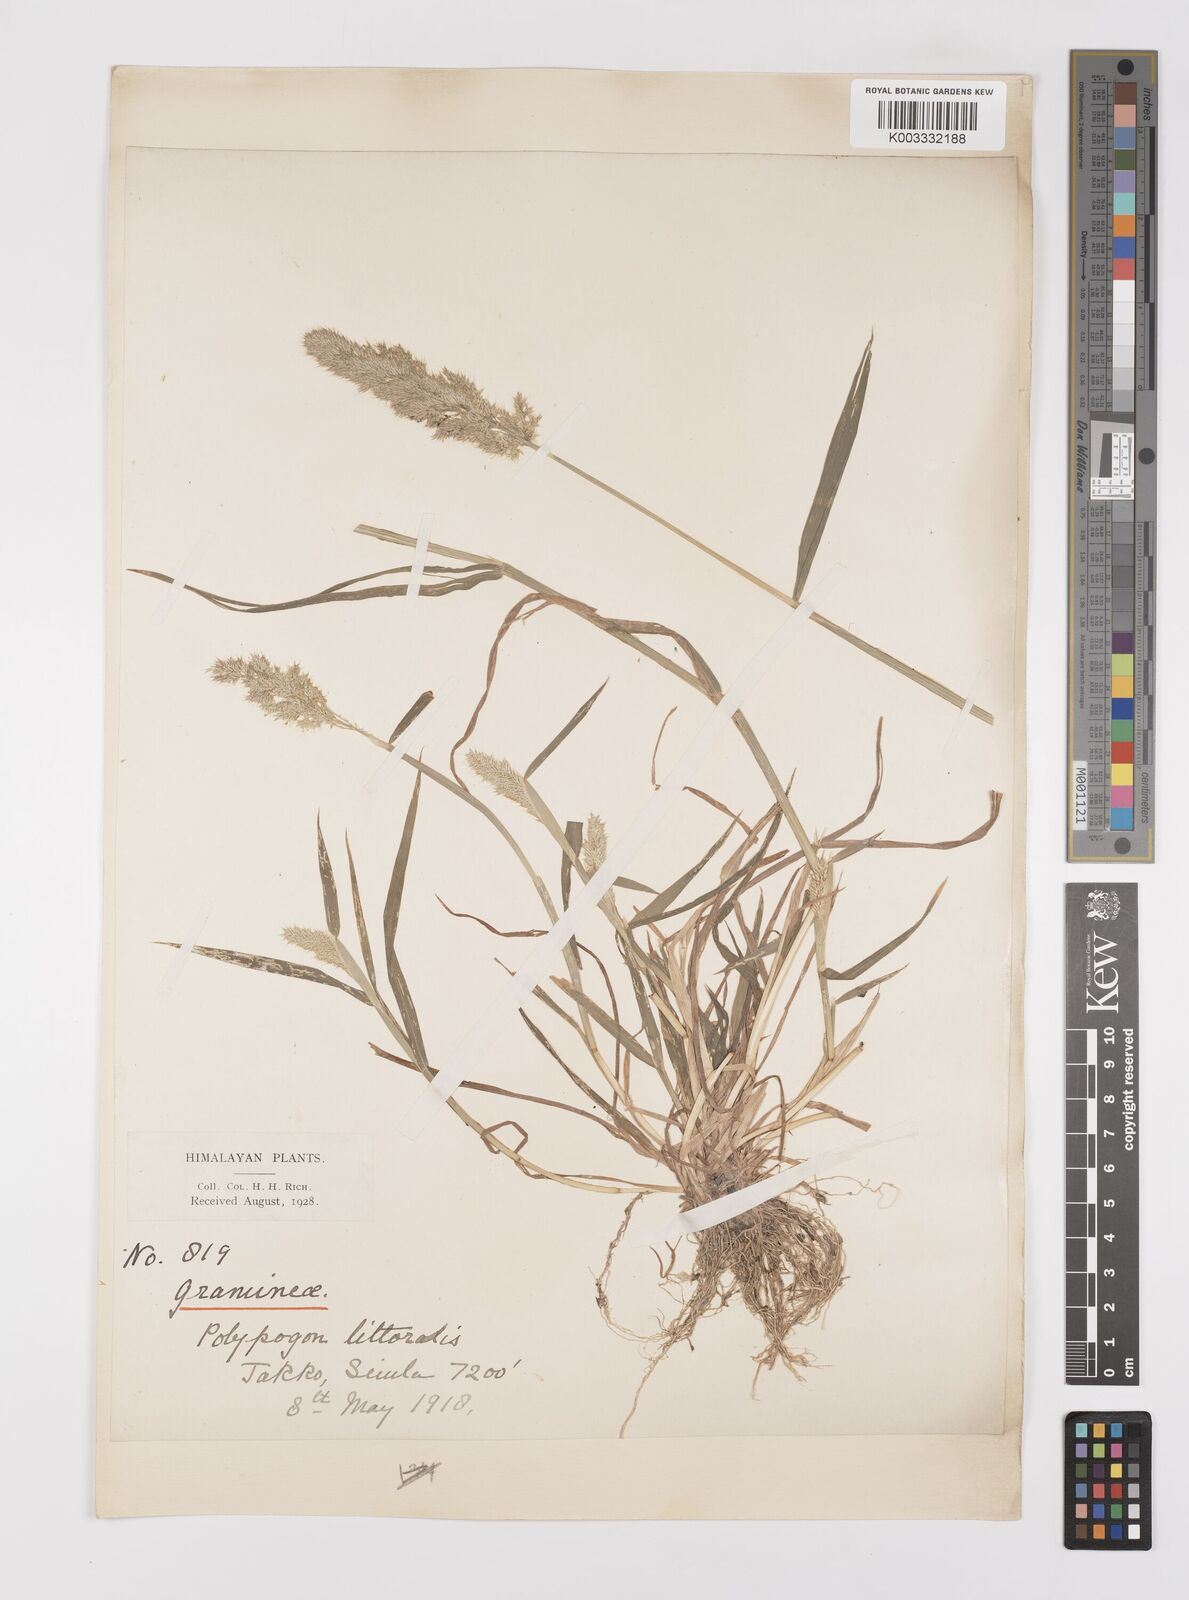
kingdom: Plantae
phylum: Tracheophyta
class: Liliopsida
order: Poales
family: Poaceae
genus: Polypogon
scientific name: Polypogon fugax
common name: Asia minor bluegrass
